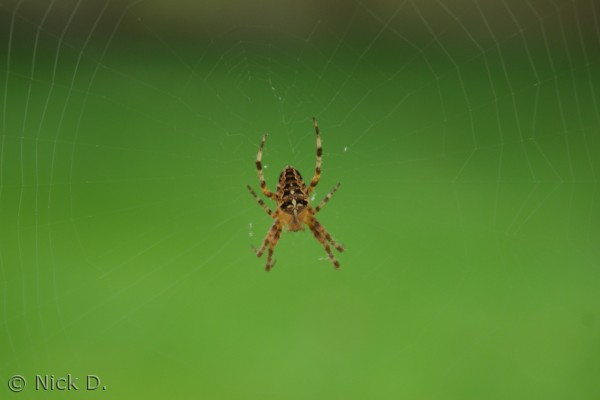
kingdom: Animalia
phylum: Arthropoda
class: Arachnida
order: Araneae
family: Araneidae
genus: Araneus
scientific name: Araneus diadematus
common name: Korsedderkop
